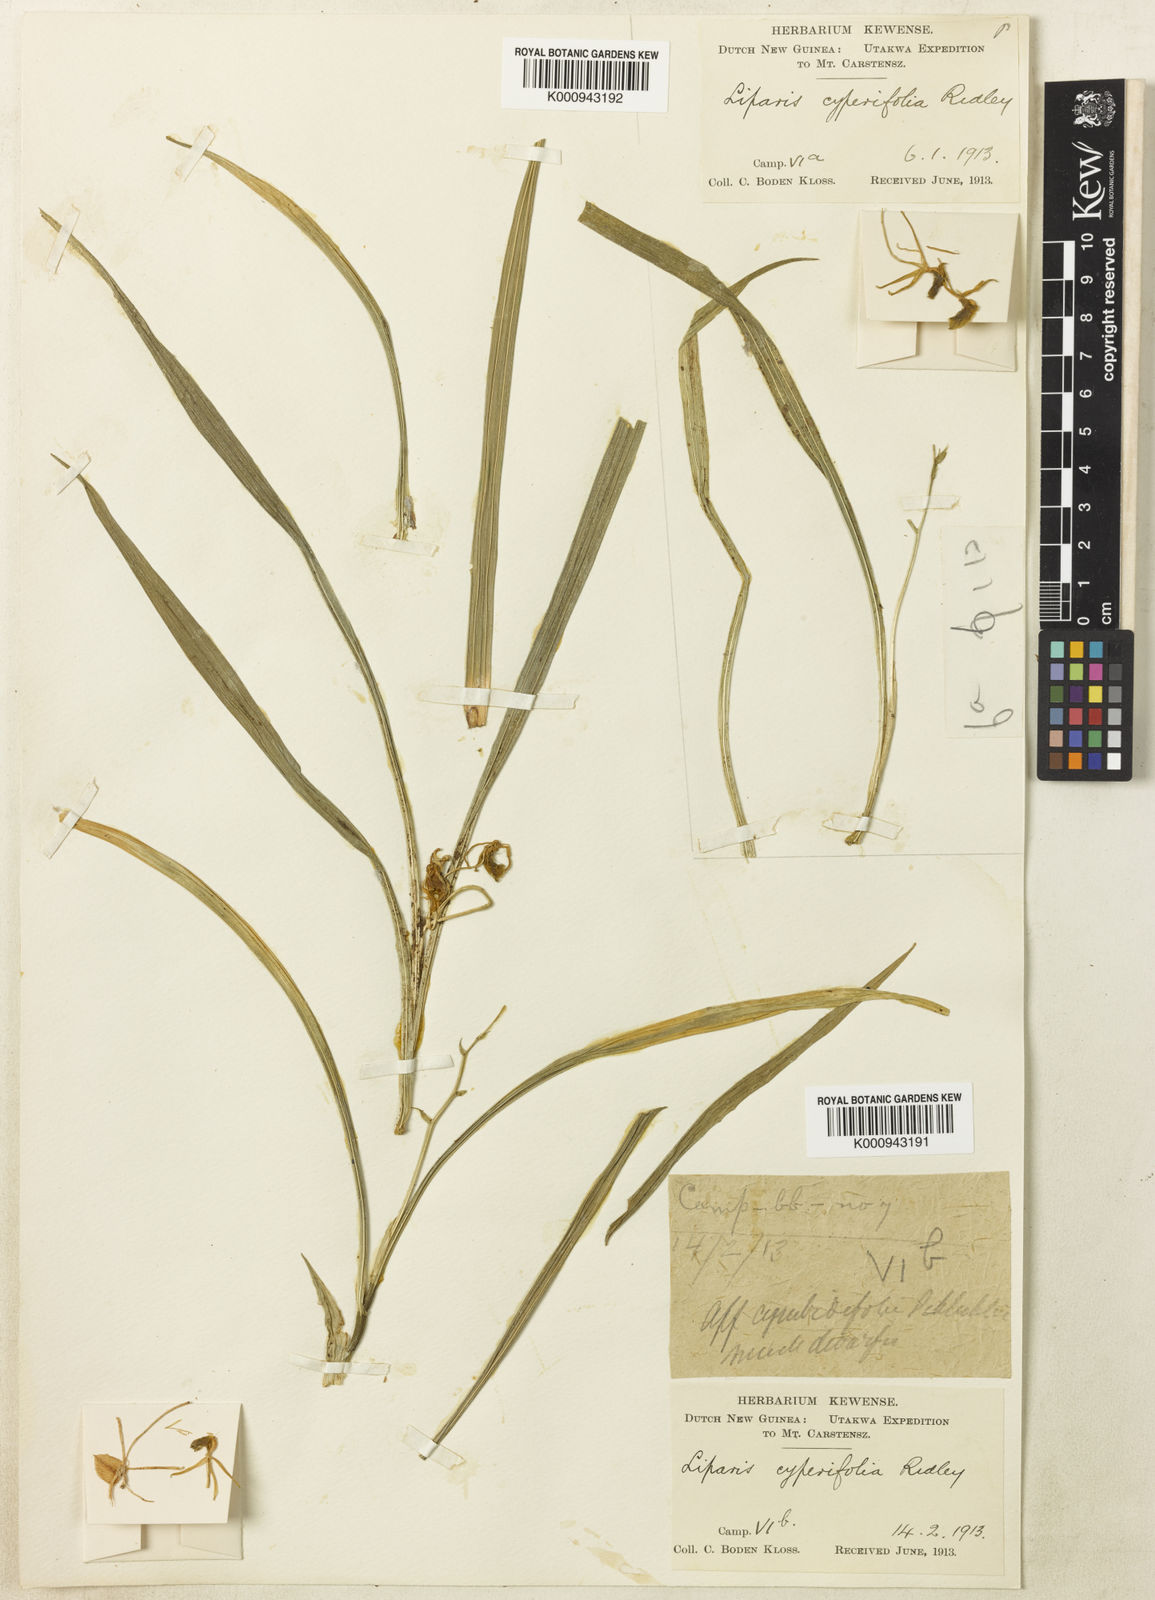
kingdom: Plantae
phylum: Tracheophyta
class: Liliopsida
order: Asparagales
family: Orchidaceae
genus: Liparis
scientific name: Liparis imperatifolia
